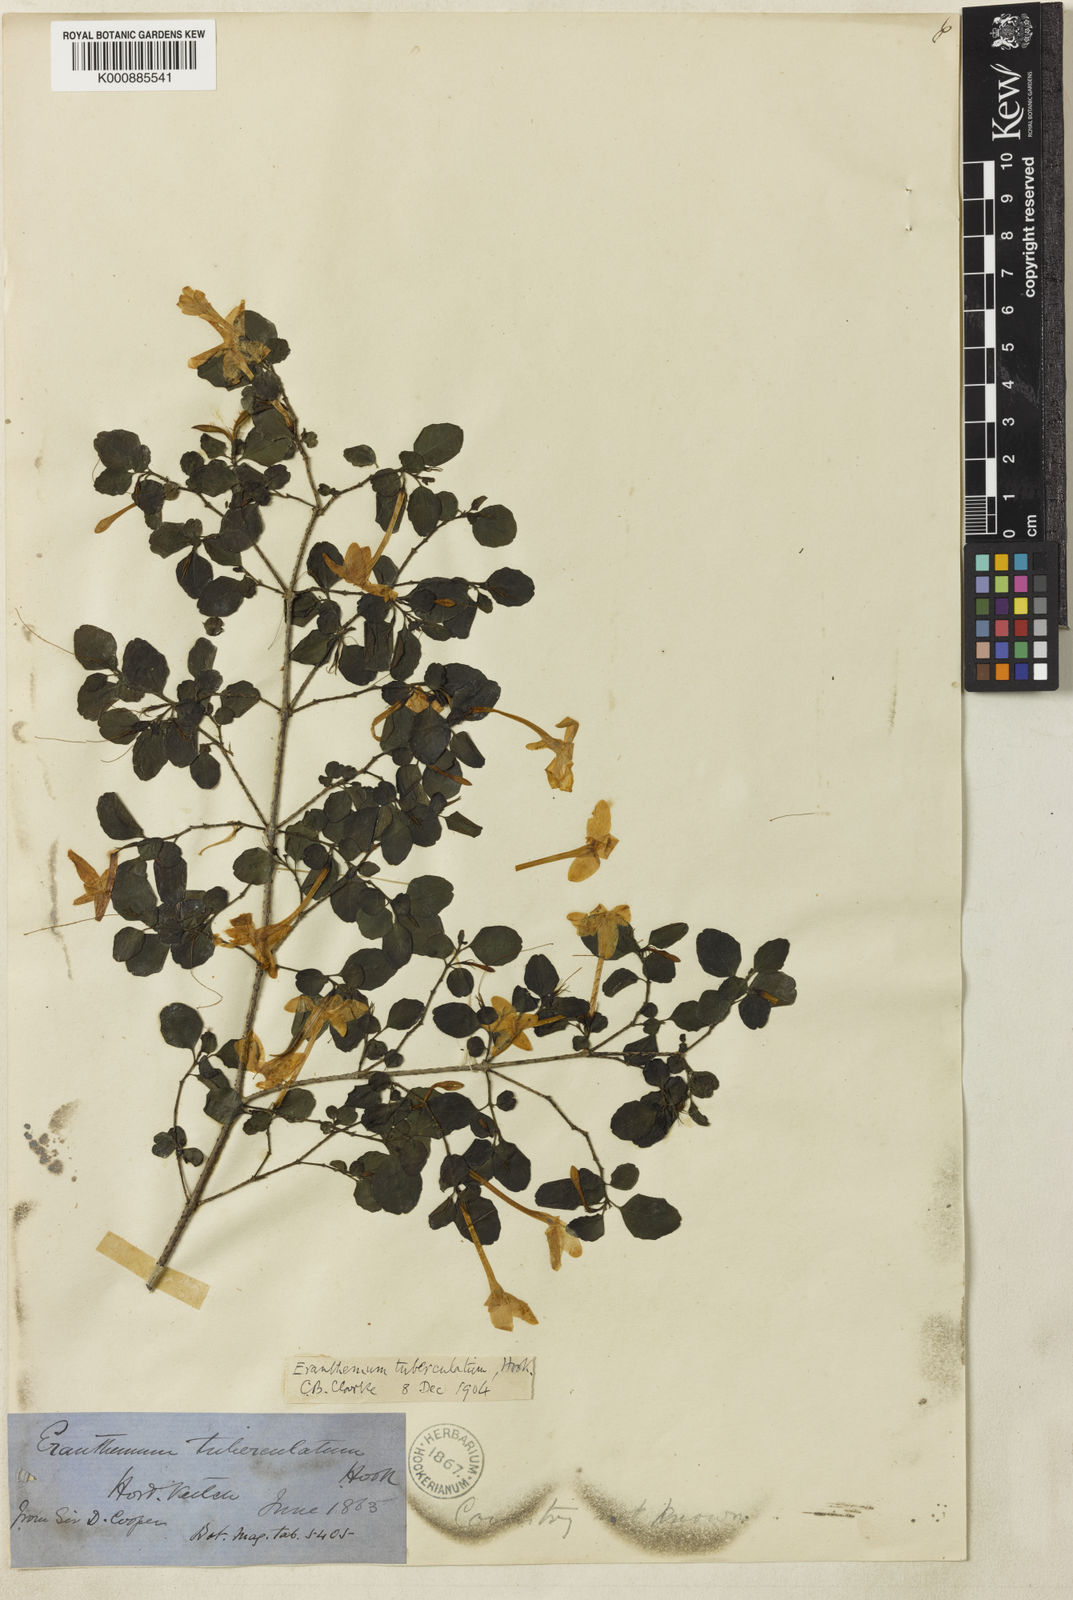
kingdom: Plantae
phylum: Tracheophyta
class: Magnoliopsida
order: Lamiales
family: Acanthaceae
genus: Pseuderanthemum
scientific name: Pseuderanthemum repandum
